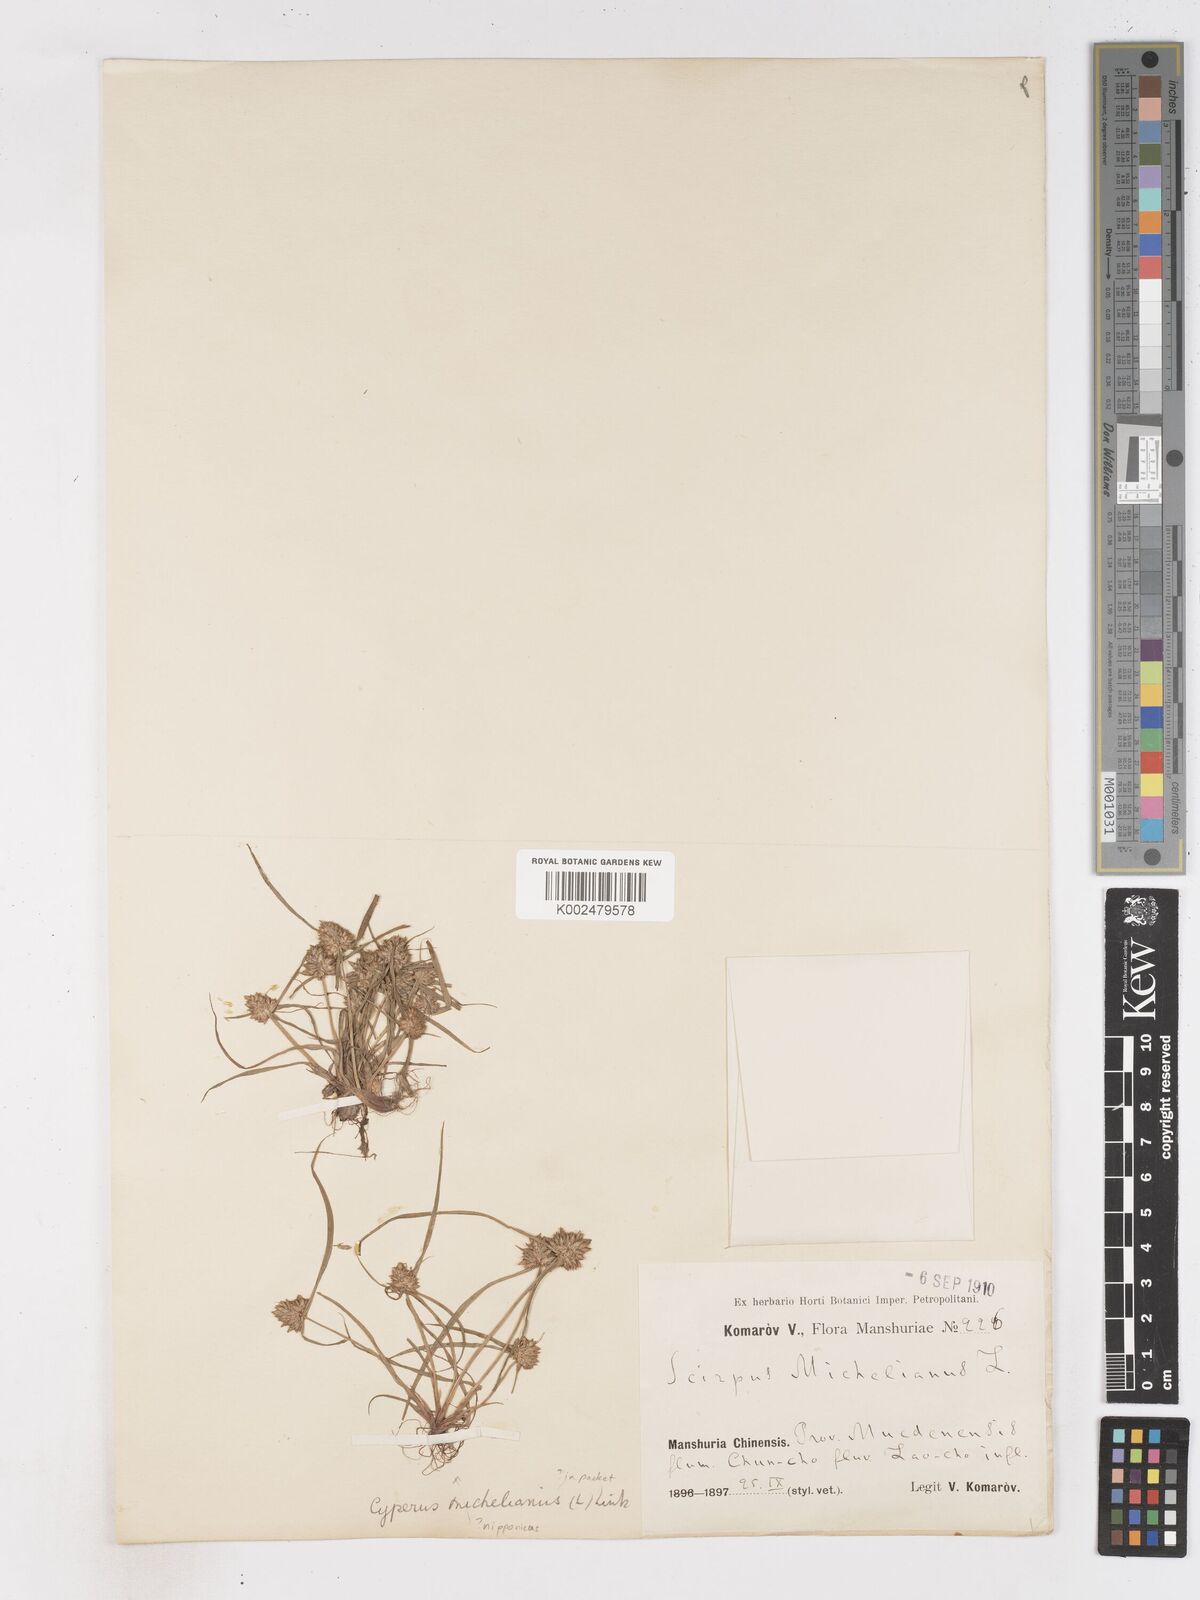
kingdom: Plantae
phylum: Tracheophyta
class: Liliopsida
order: Poales
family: Cyperaceae
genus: Cyperus
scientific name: Cyperus michelianus
